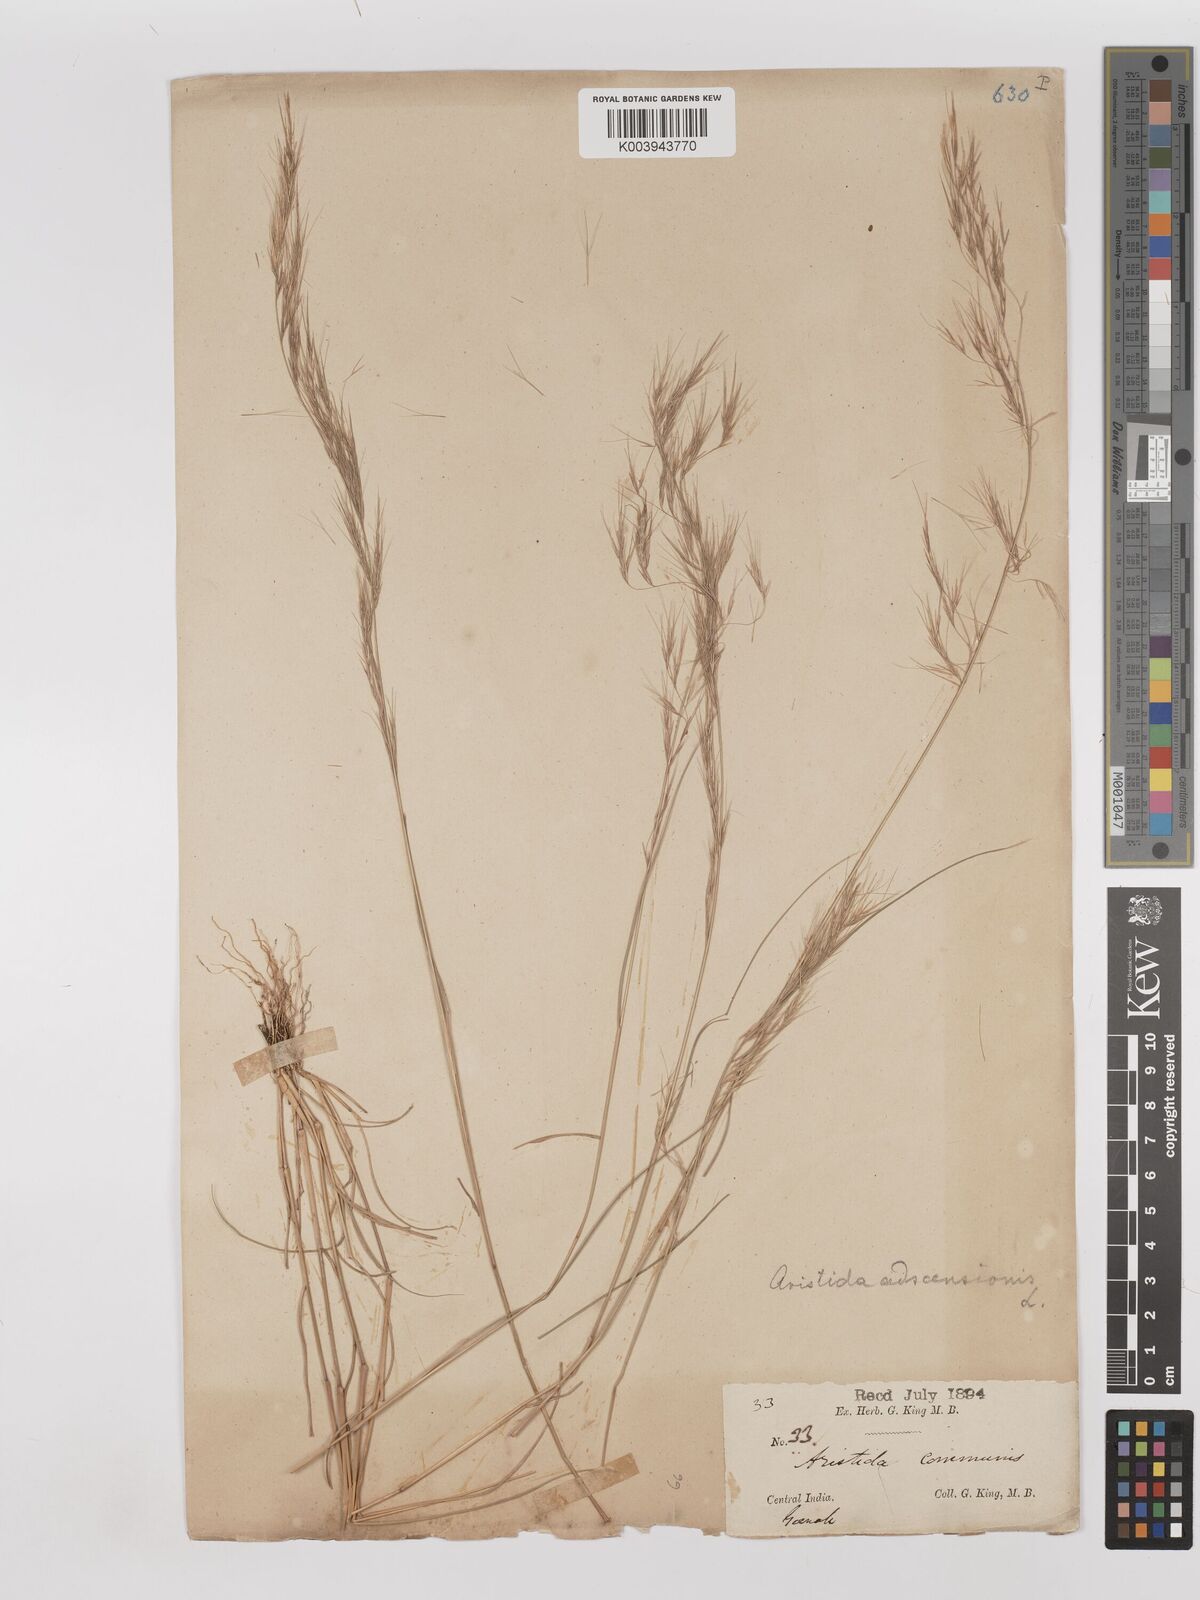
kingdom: Plantae
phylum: Tracheophyta
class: Liliopsida
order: Poales
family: Poaceae
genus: Aristida
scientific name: Aristida adscensionis
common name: Sixweeks threeawn
